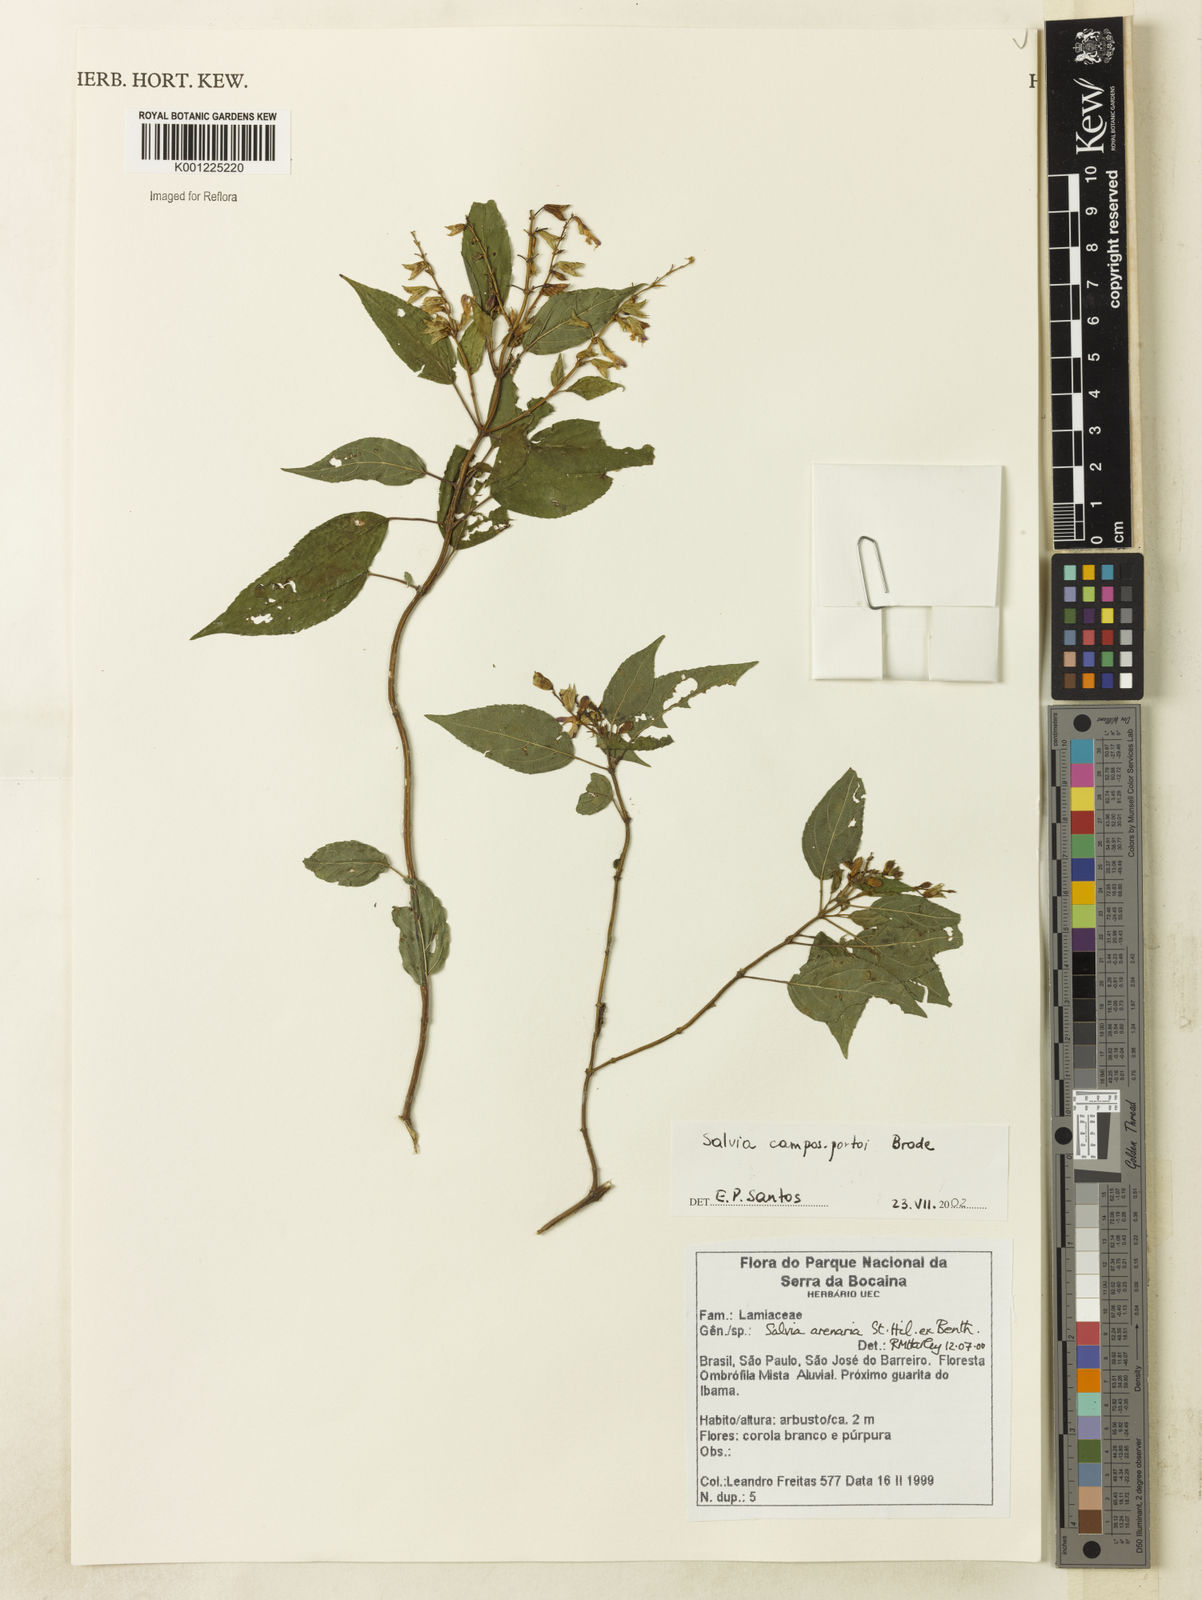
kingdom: Plantae
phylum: Tracheophyta
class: Magnoliopsida
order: Lamiales
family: Lamiaceae
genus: Salvia
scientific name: Salvia arenaria
